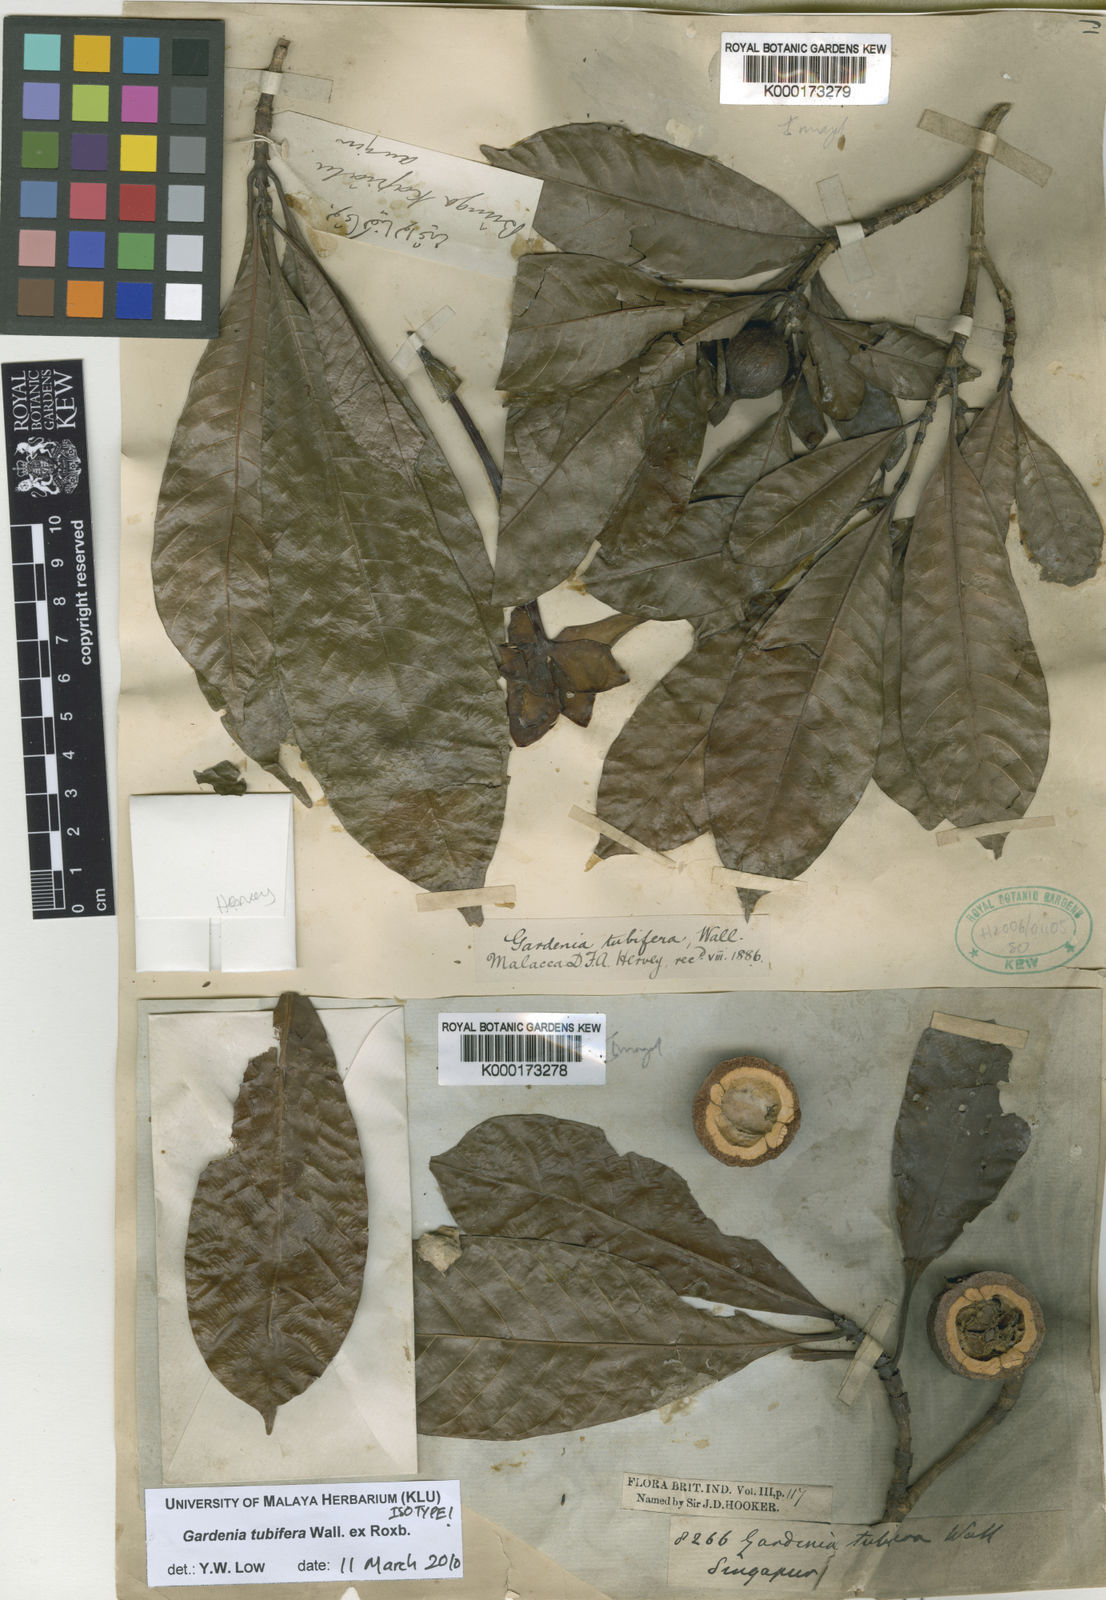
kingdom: Plantae
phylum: Tracheophyta
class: Magnoliopsida
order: Gentianales
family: Rubiaceae
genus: Gardenia
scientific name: Gardenia tubifera
